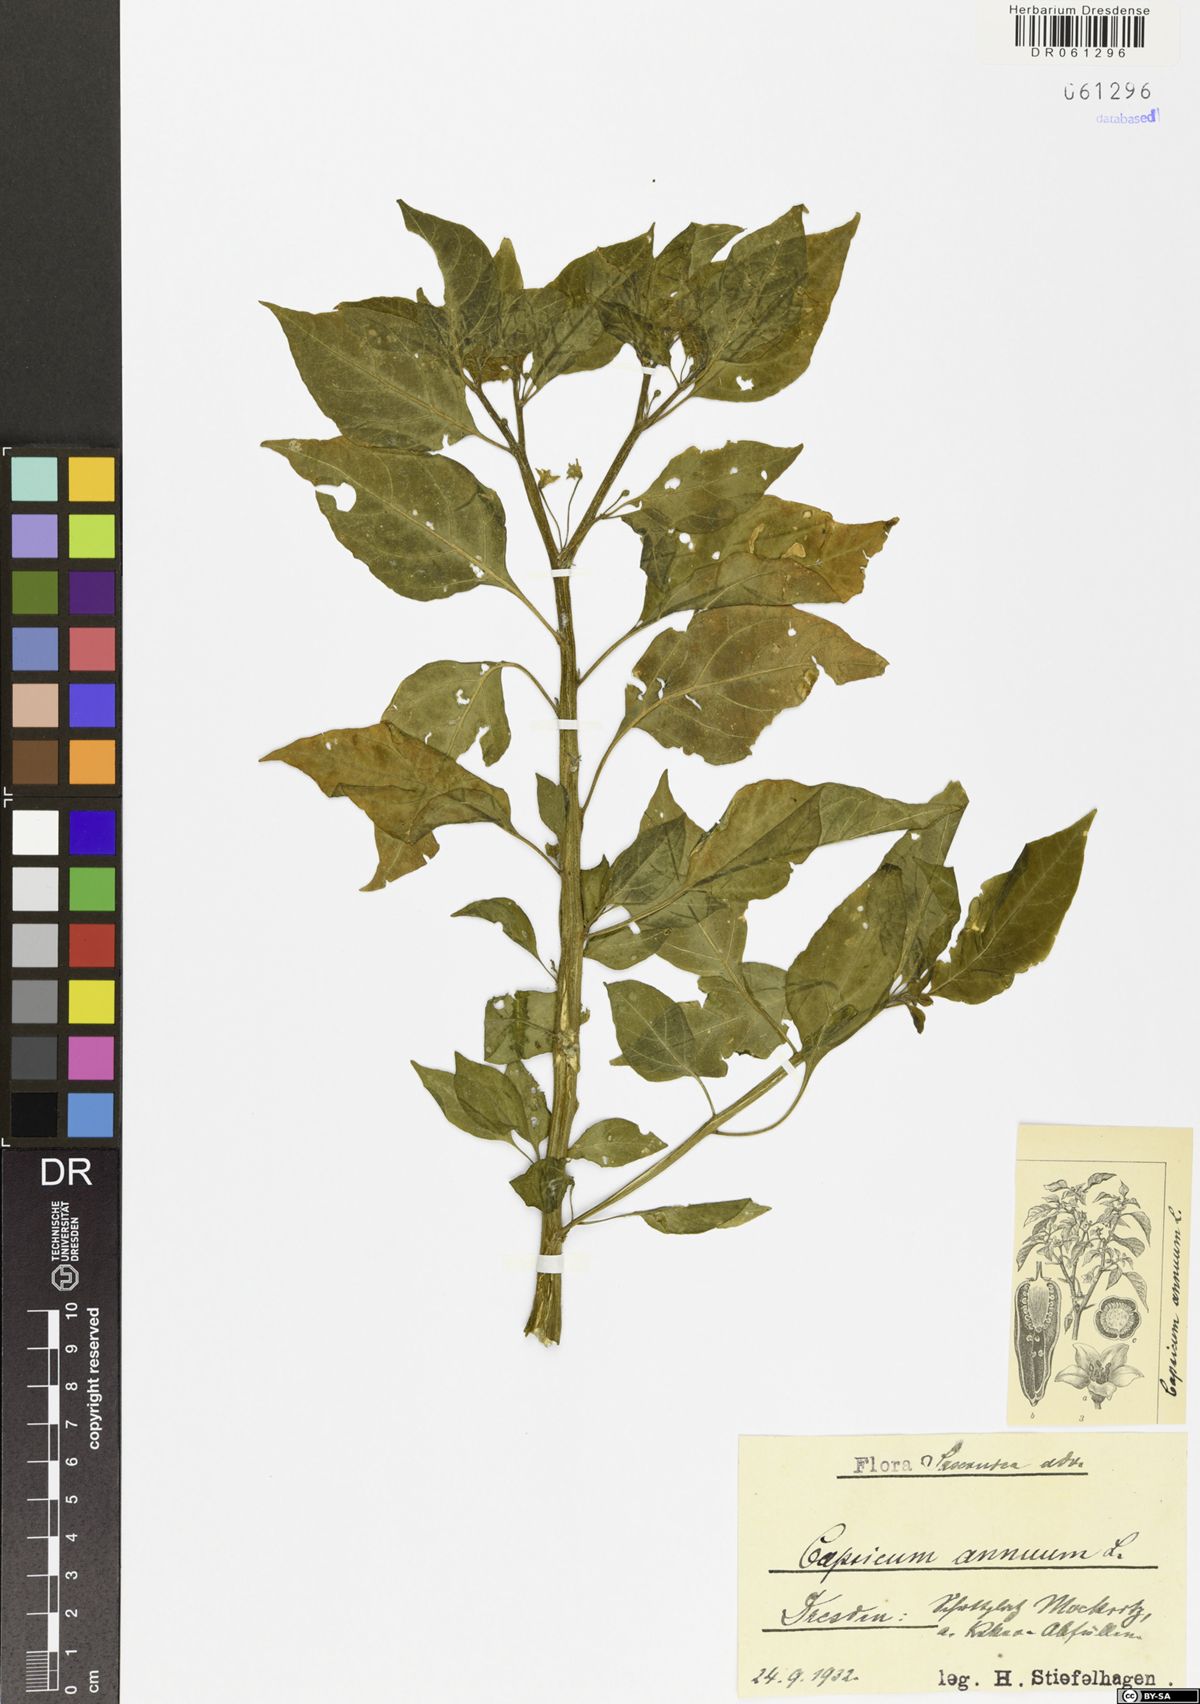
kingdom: Plantae
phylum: Tracheophyta
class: Magnoliopsida
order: Solanales
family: Solanaceae
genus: Capsicum
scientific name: Capsicum annuum
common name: Sweet pepper
